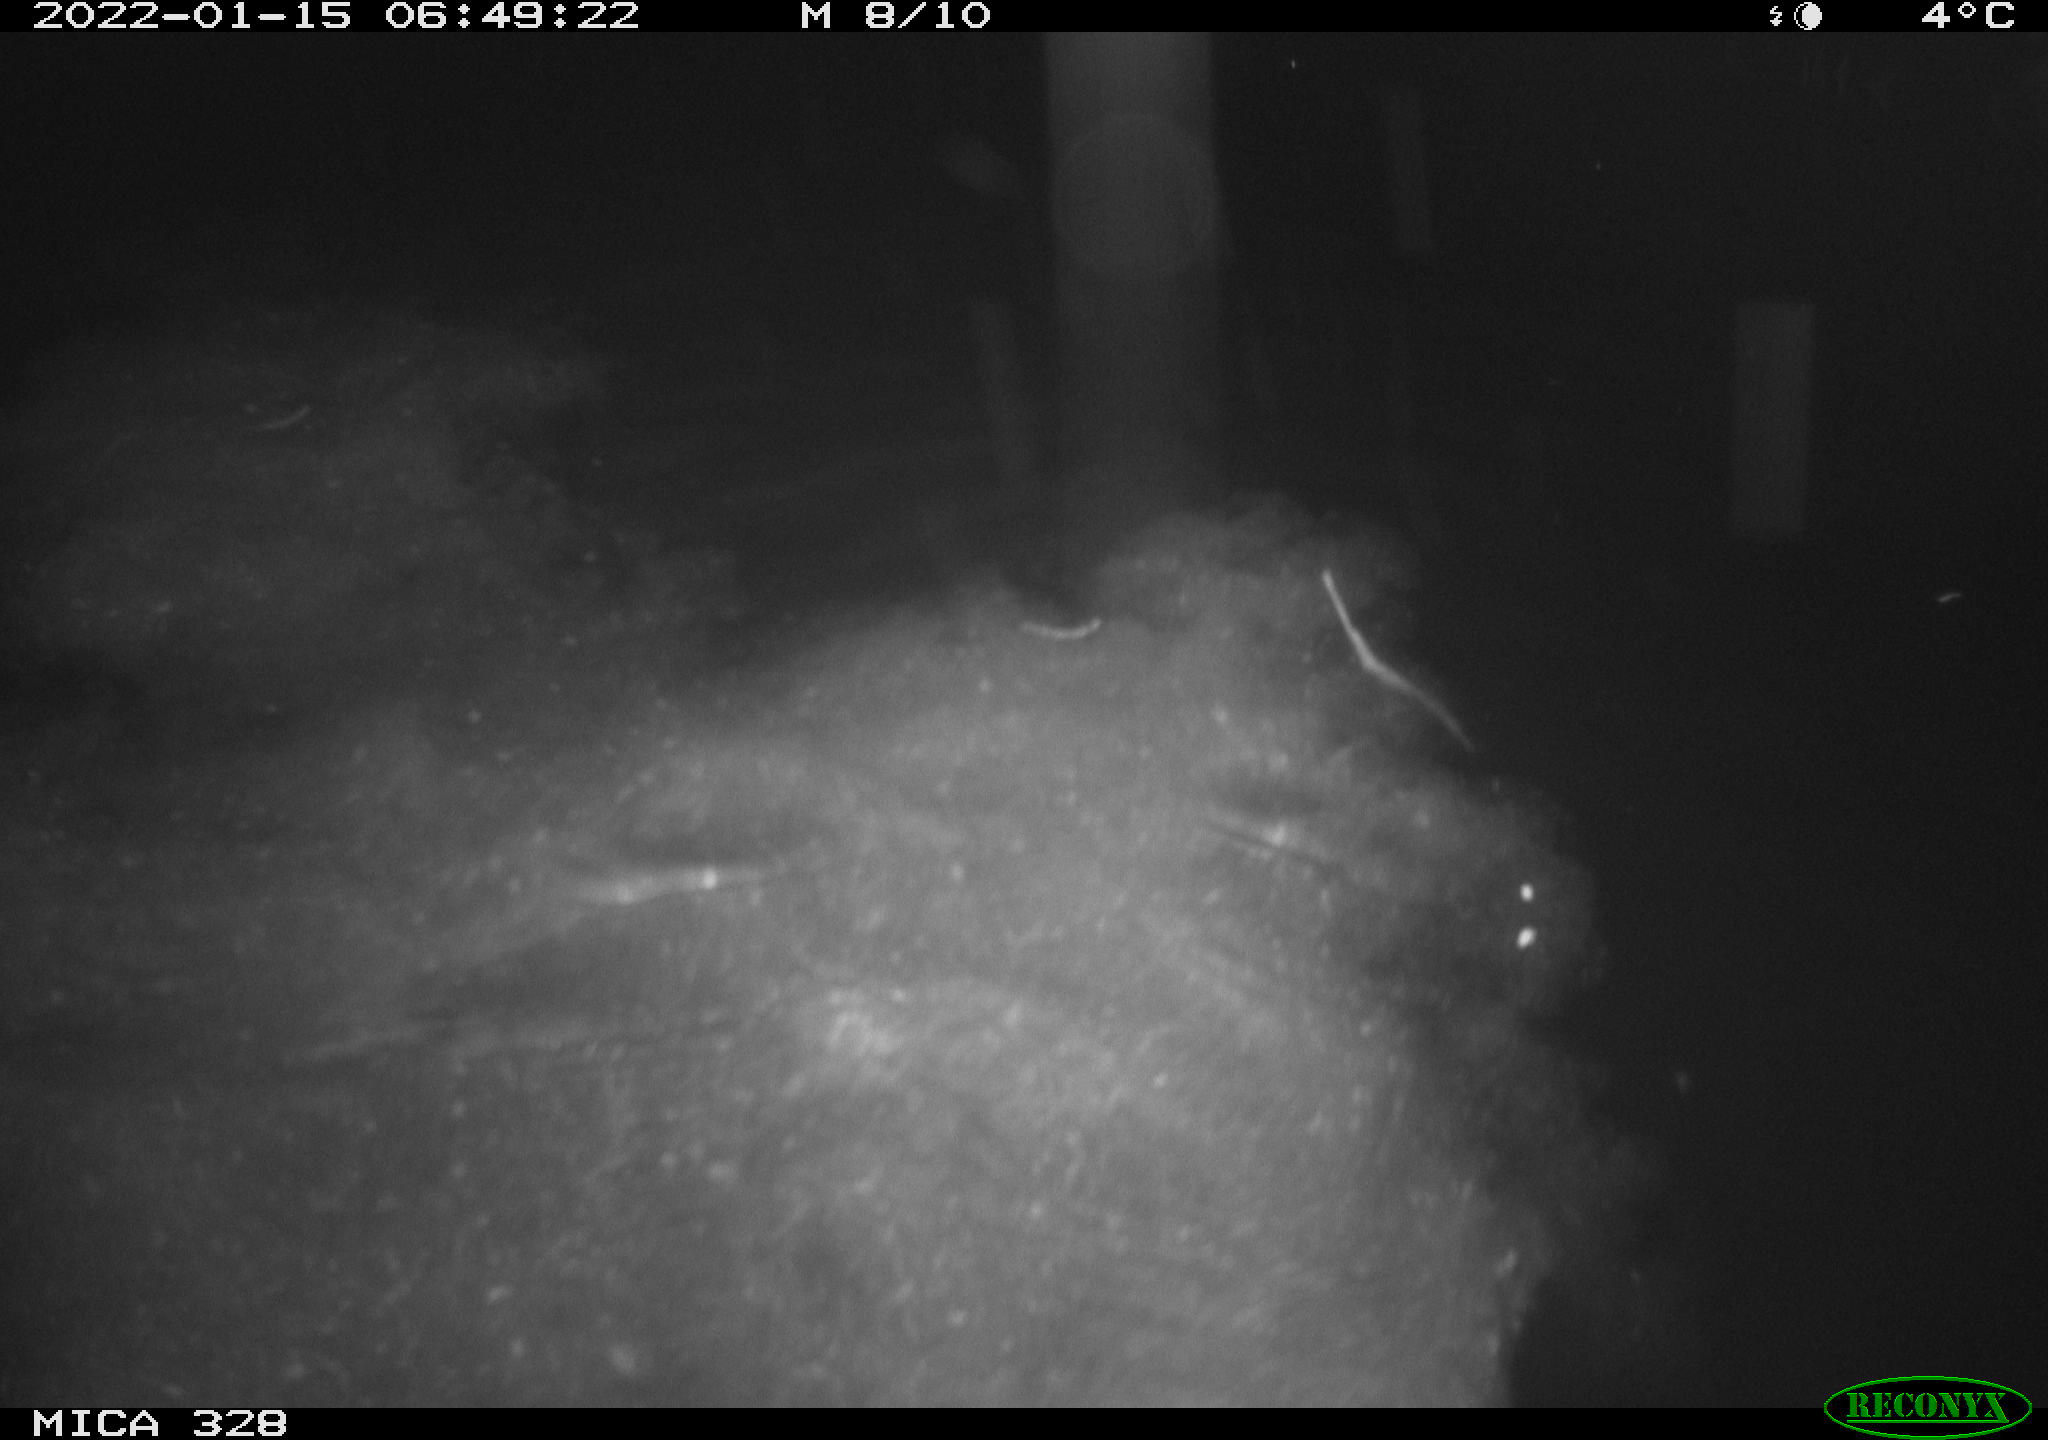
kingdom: Animalia
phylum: Chordata
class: Mammalia
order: Rodentia
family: Cricetidae
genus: Ondatra
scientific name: Ondatra zibethicus
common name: Muskrat
